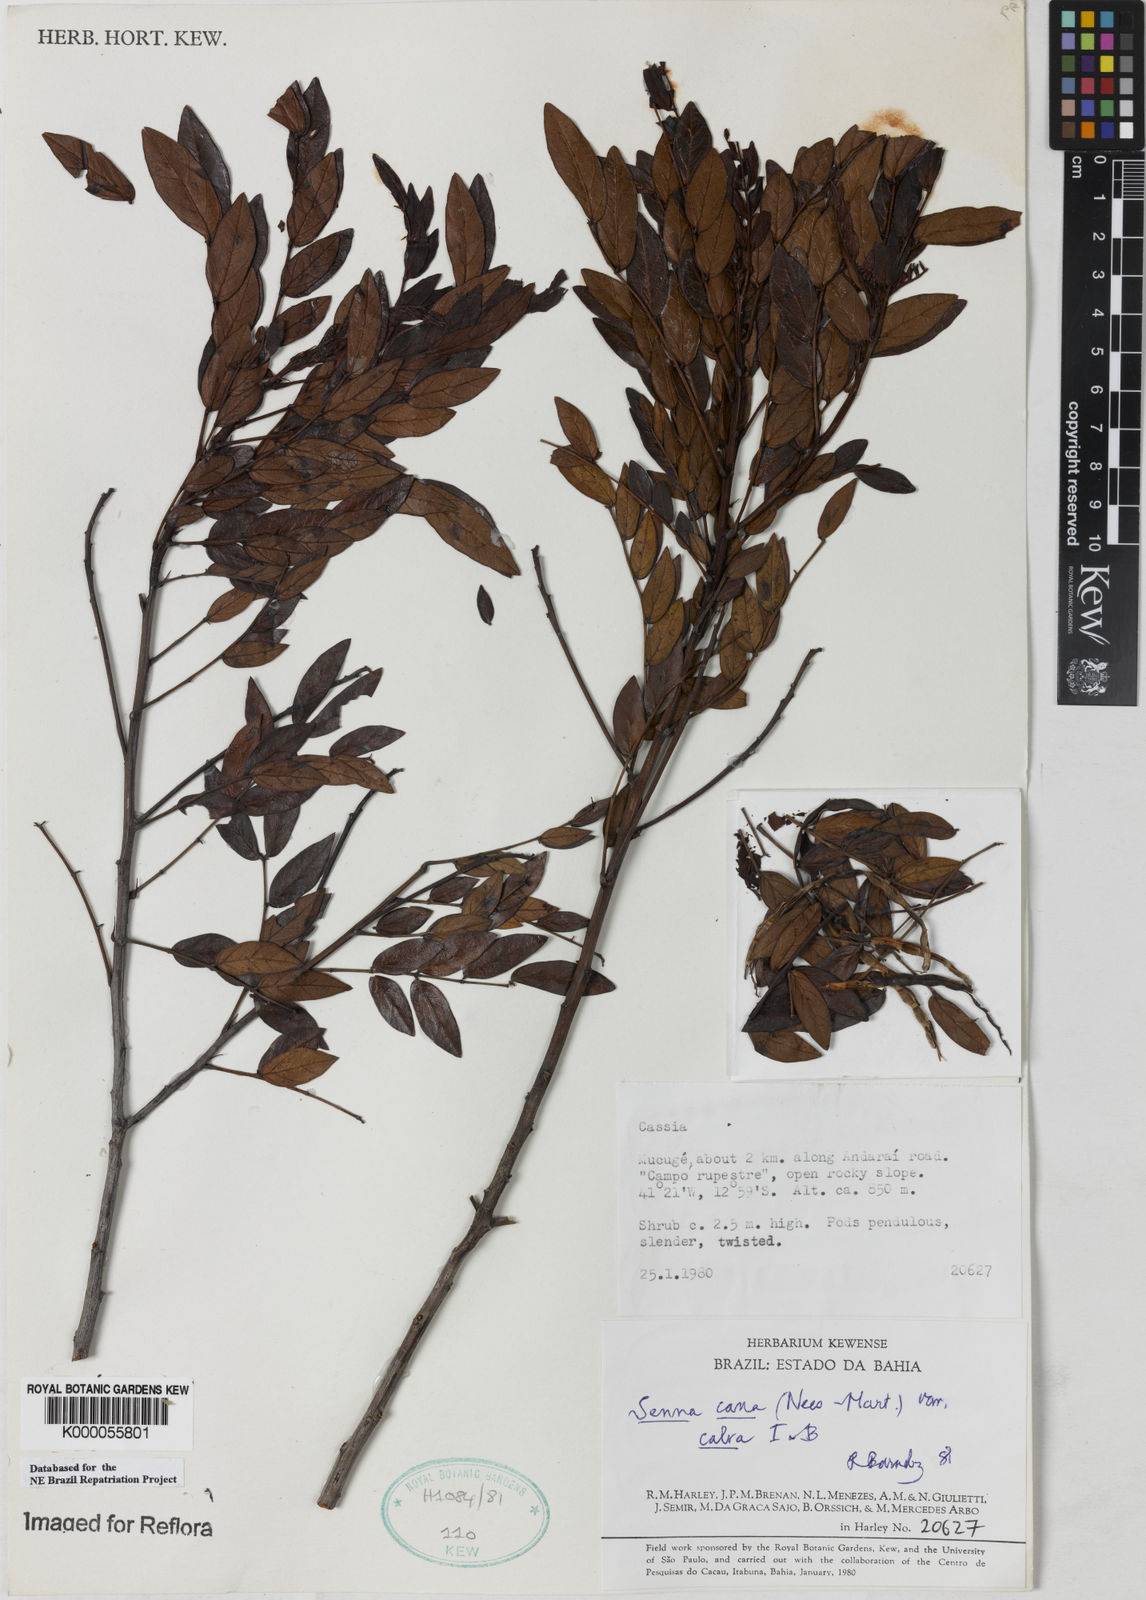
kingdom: Plantae
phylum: Tracheophyta
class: Magnoliopsida
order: Fabales
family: Fabaceae
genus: Senna
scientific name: Senna cana
